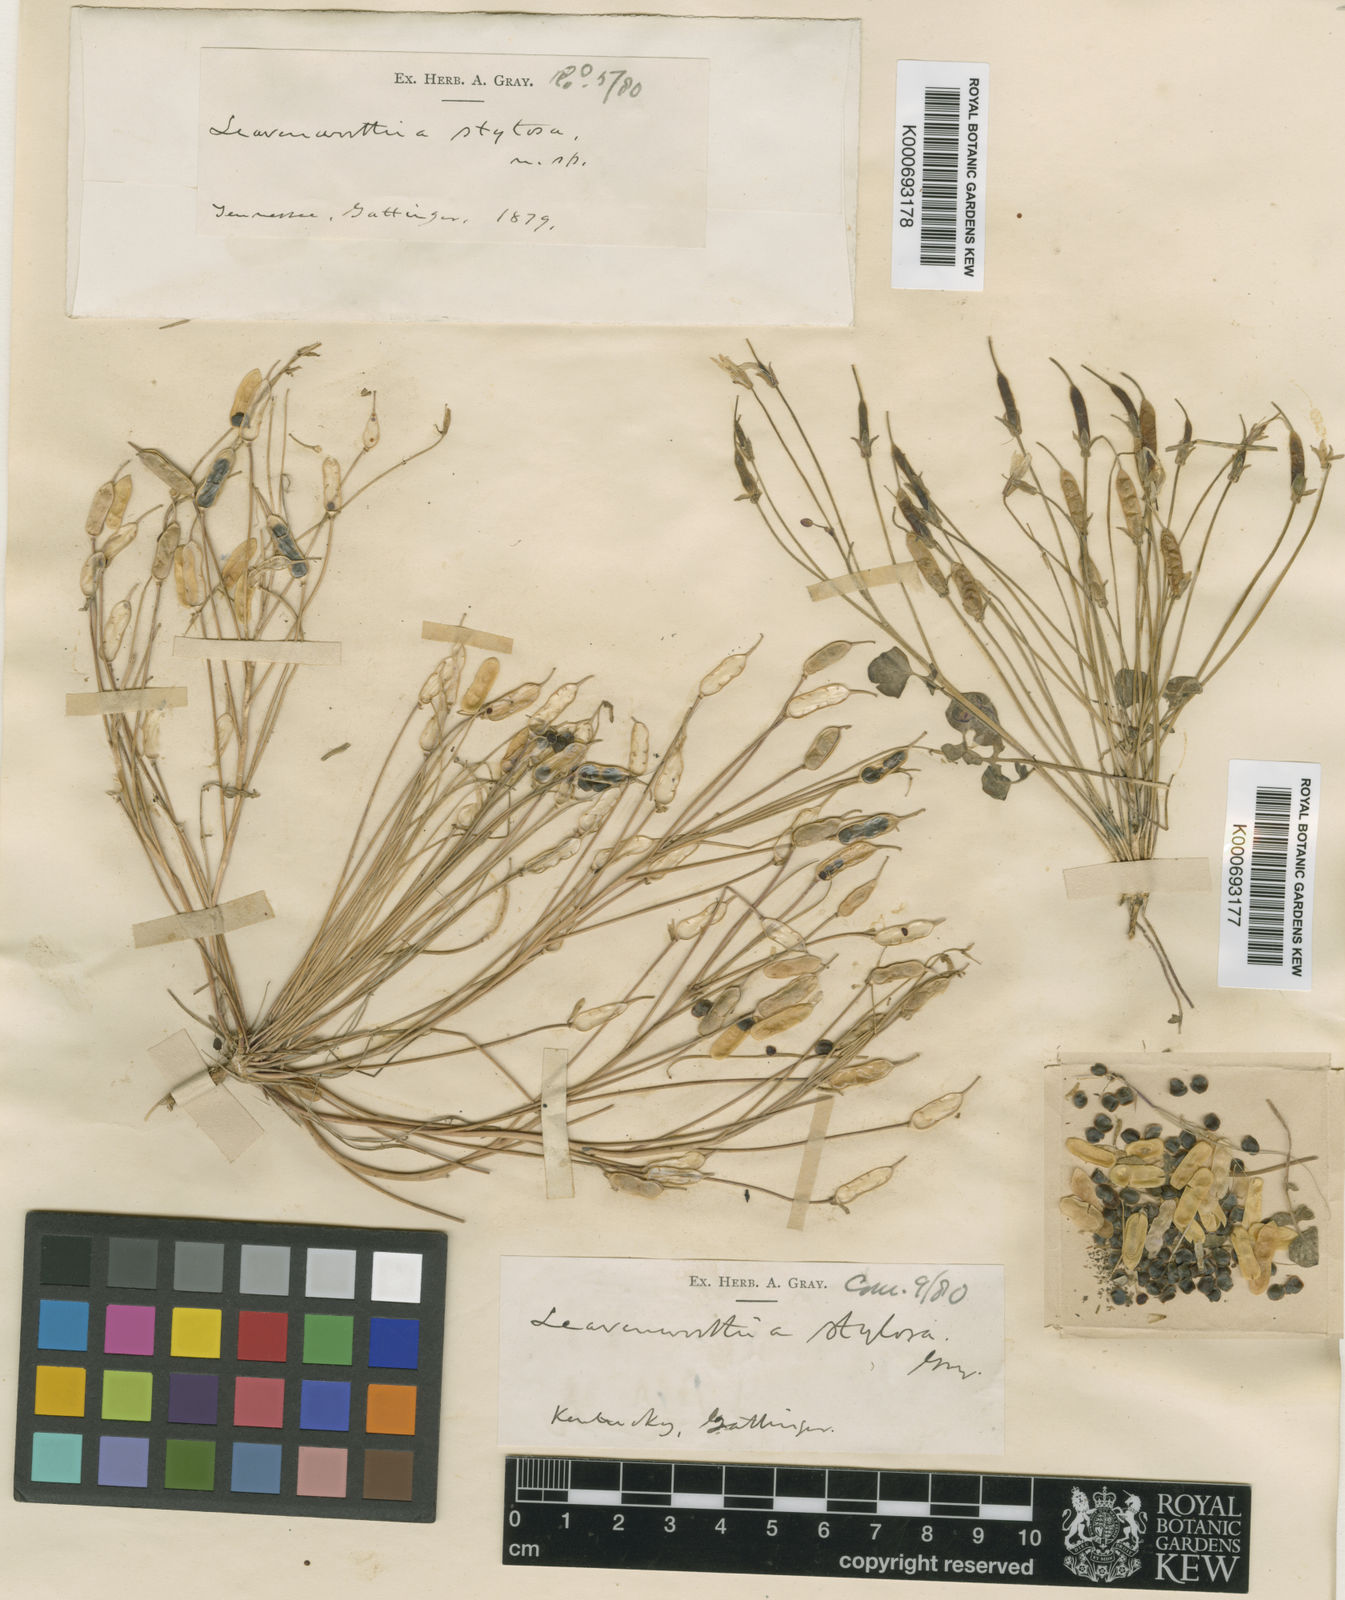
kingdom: Plantae
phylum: Tracheophyta
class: Magnoliopsida
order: Brassicales
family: Brassicaceae
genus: Leavenworthia
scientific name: Leavenworthia
